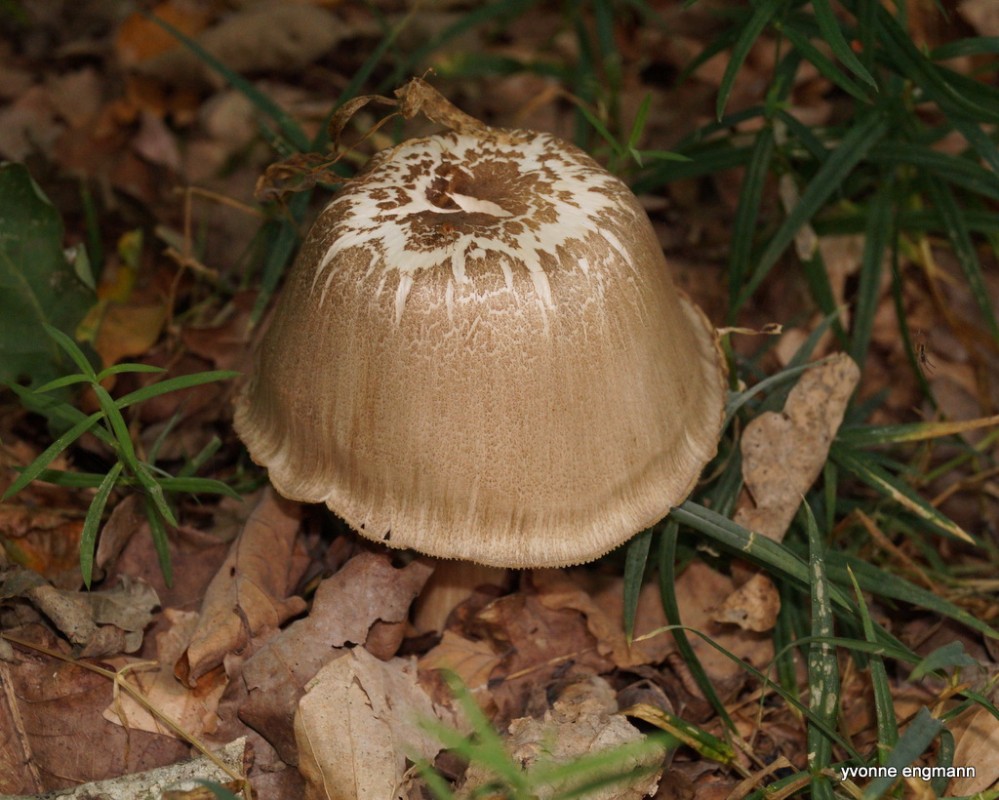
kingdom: Fungi
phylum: Basidiomycota
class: Agaricomycetes
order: Agaricales
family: Tricholomataceae
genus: Megacollybia
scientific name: Megacollybia platyphylla
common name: bredbladet væbnerhat
